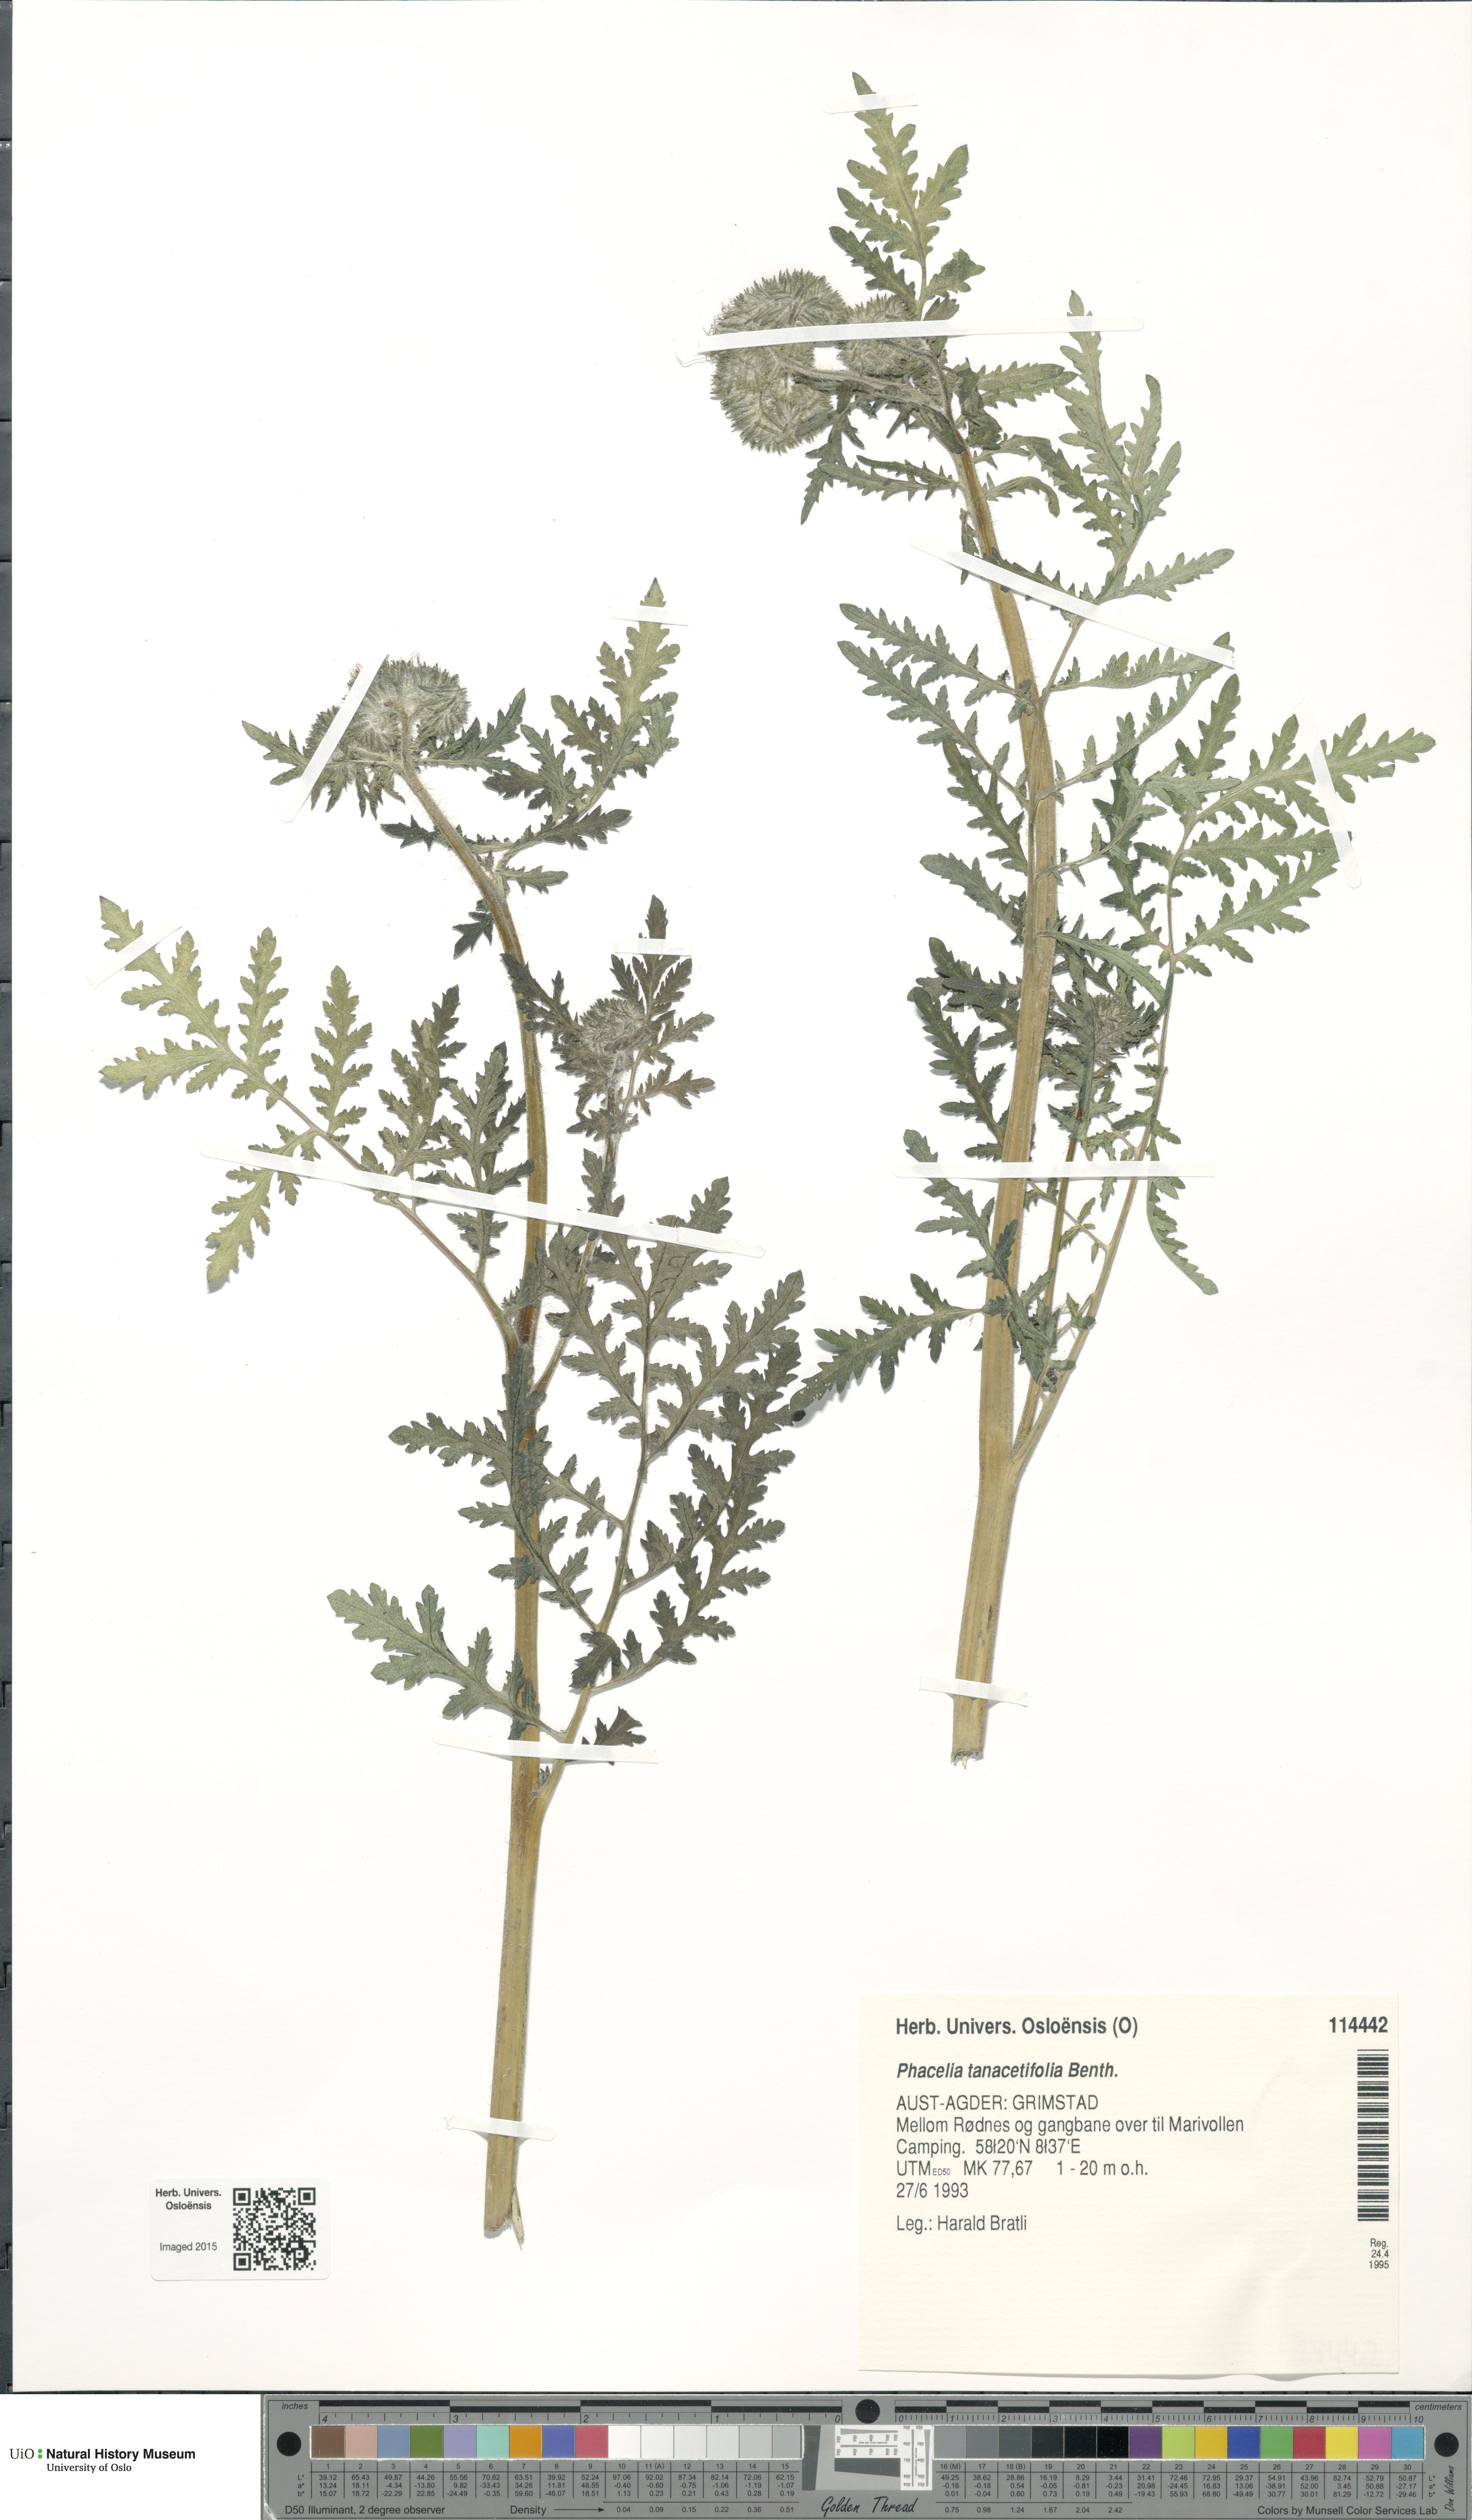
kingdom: Plantae
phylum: Tracheophyta
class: Magnoliopsida
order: Boraginales
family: Hydrophyllaceae
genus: Phacelia
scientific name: Phacelia tanacetifolia
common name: Phacelia
